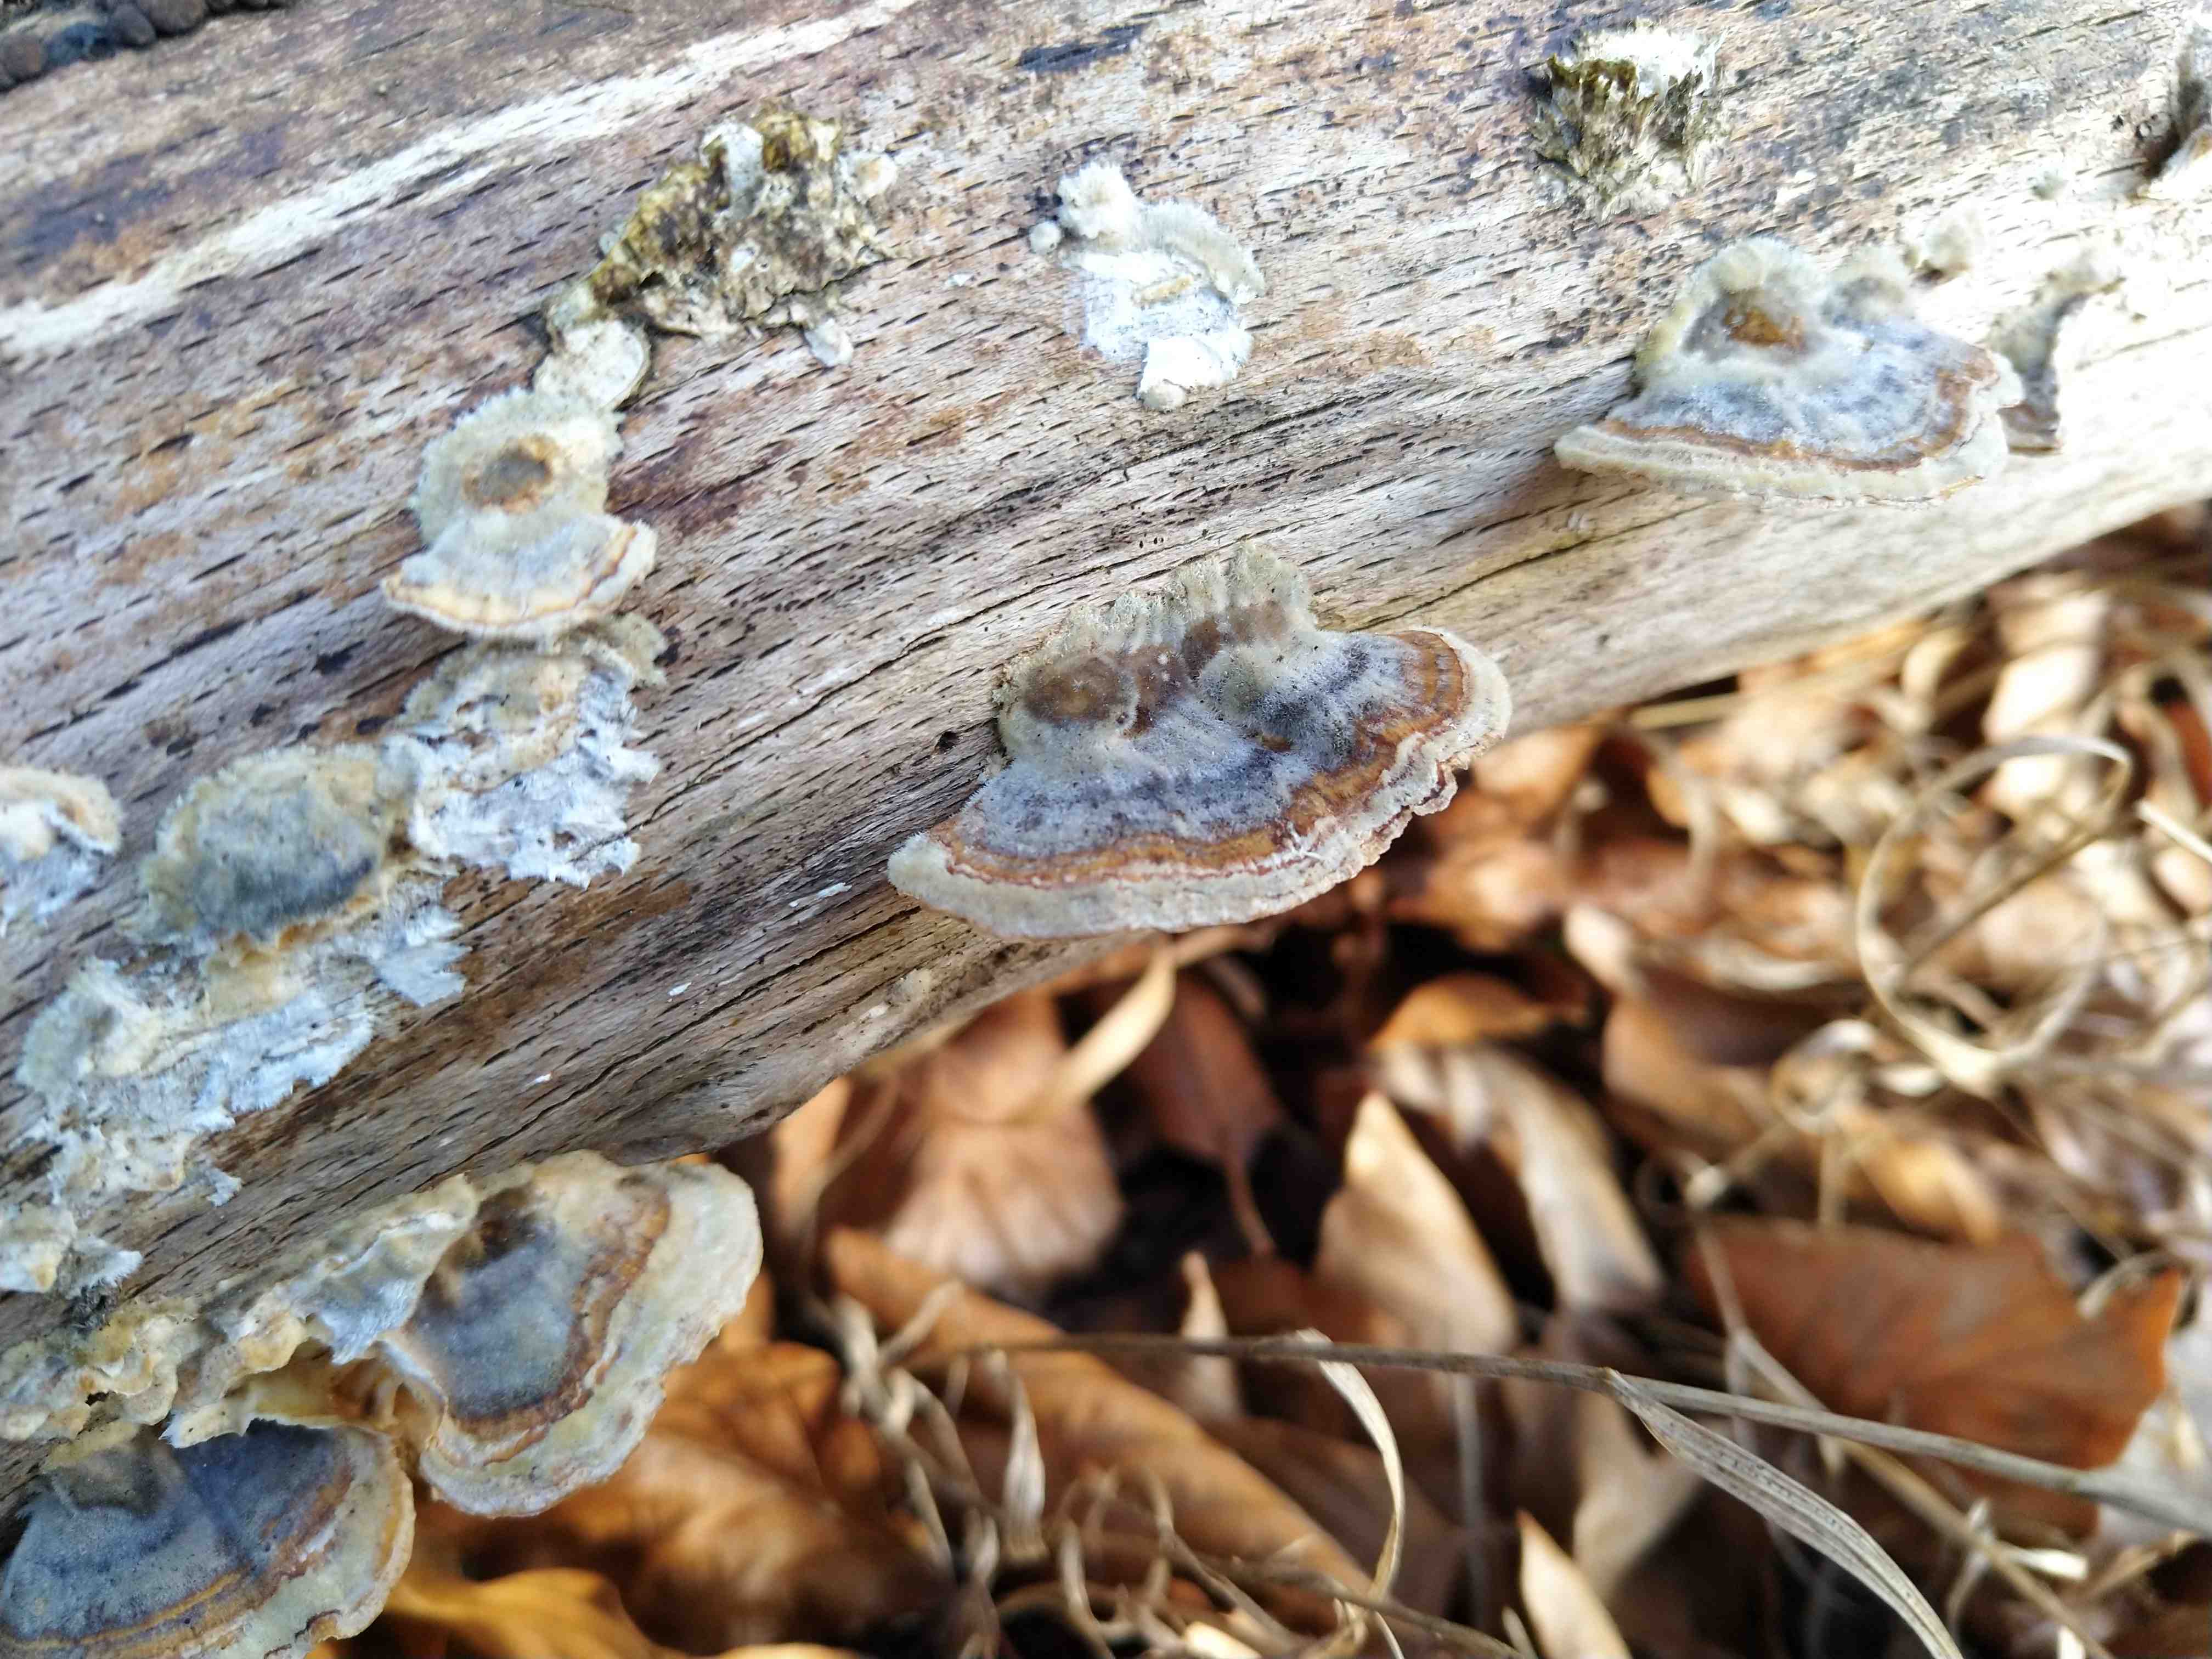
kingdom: Fungi
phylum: Basidiomycota
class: Agaricomycetes
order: Polyporales
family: Polyporaceae
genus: Trametes
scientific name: Trametes versicolor
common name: broget læderporesvamp
